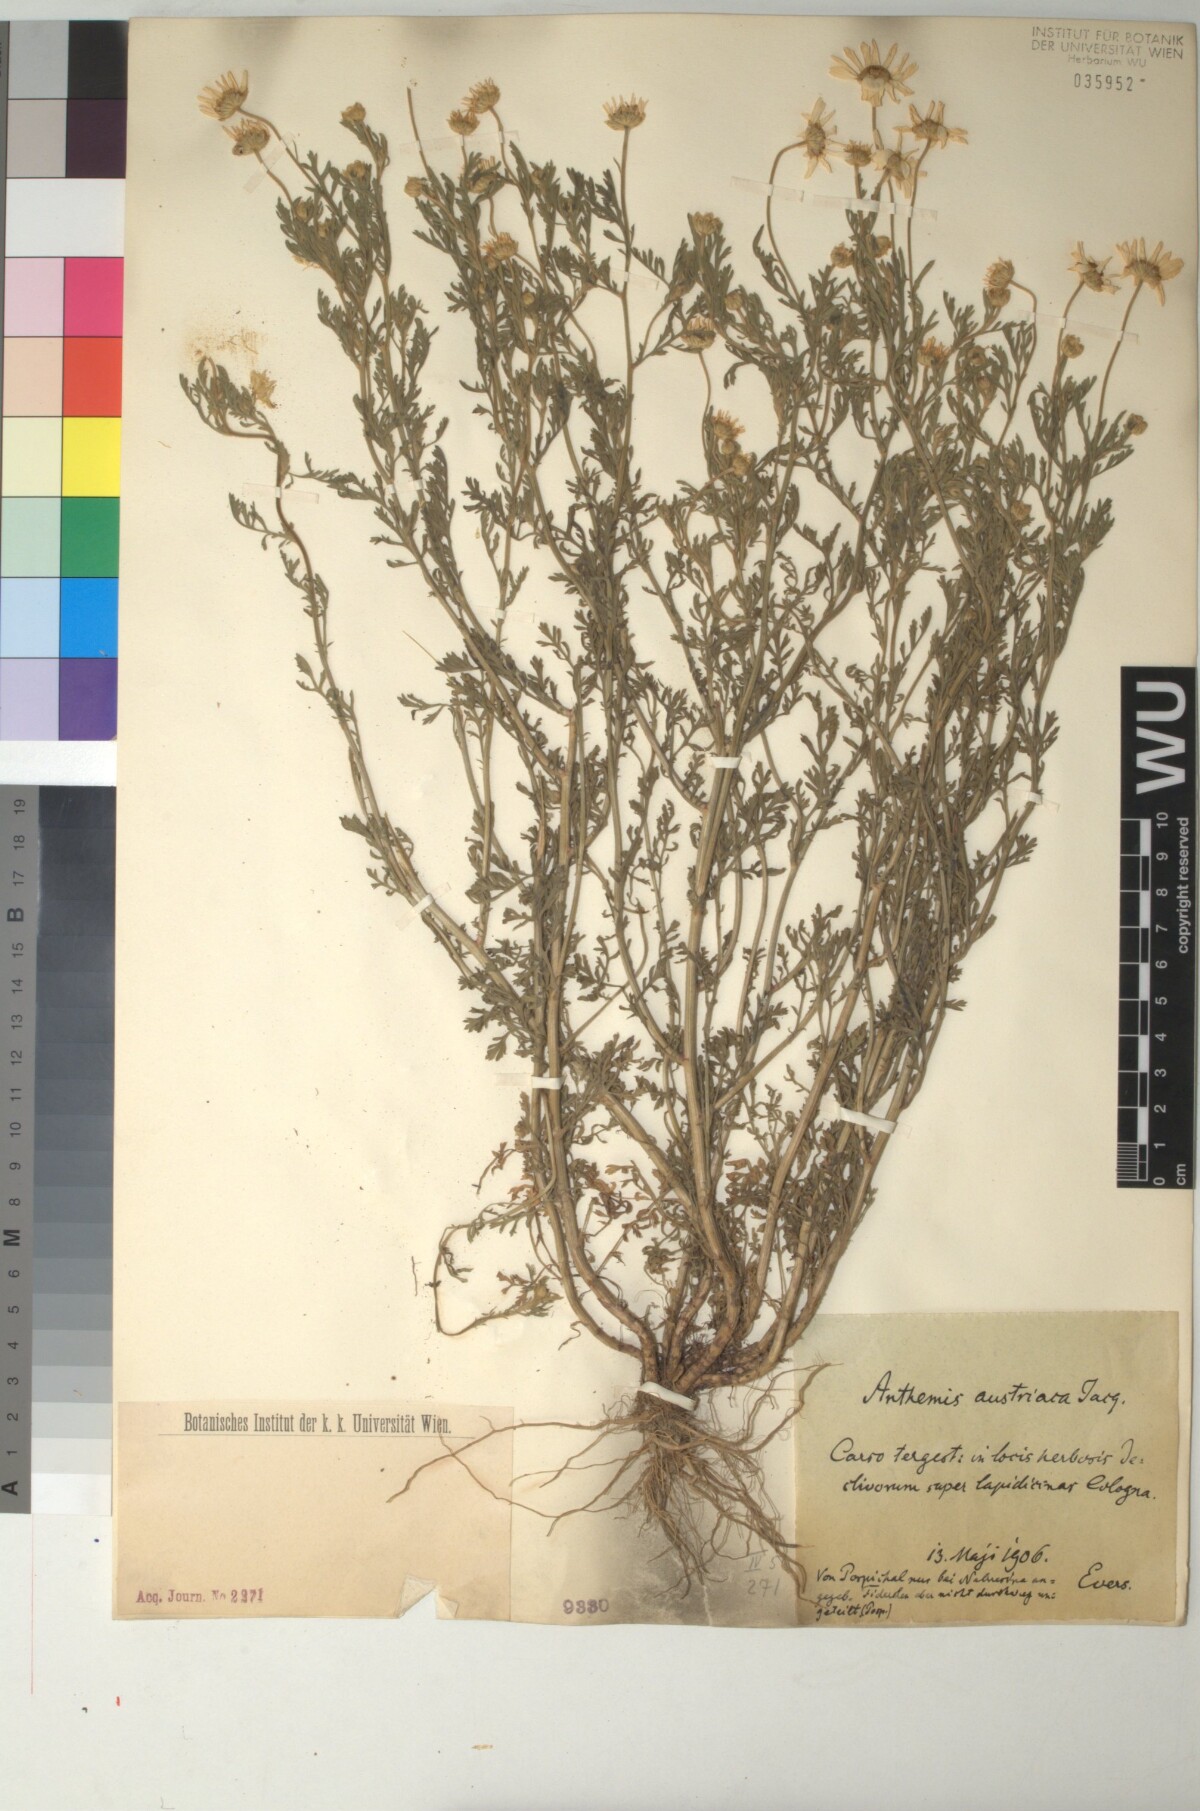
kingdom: Plantae
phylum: Tracheophyta
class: Magnoliopsida
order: Asterales
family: Asteraceae
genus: Cota
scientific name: Cota austriaca
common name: Austrian chamomile
